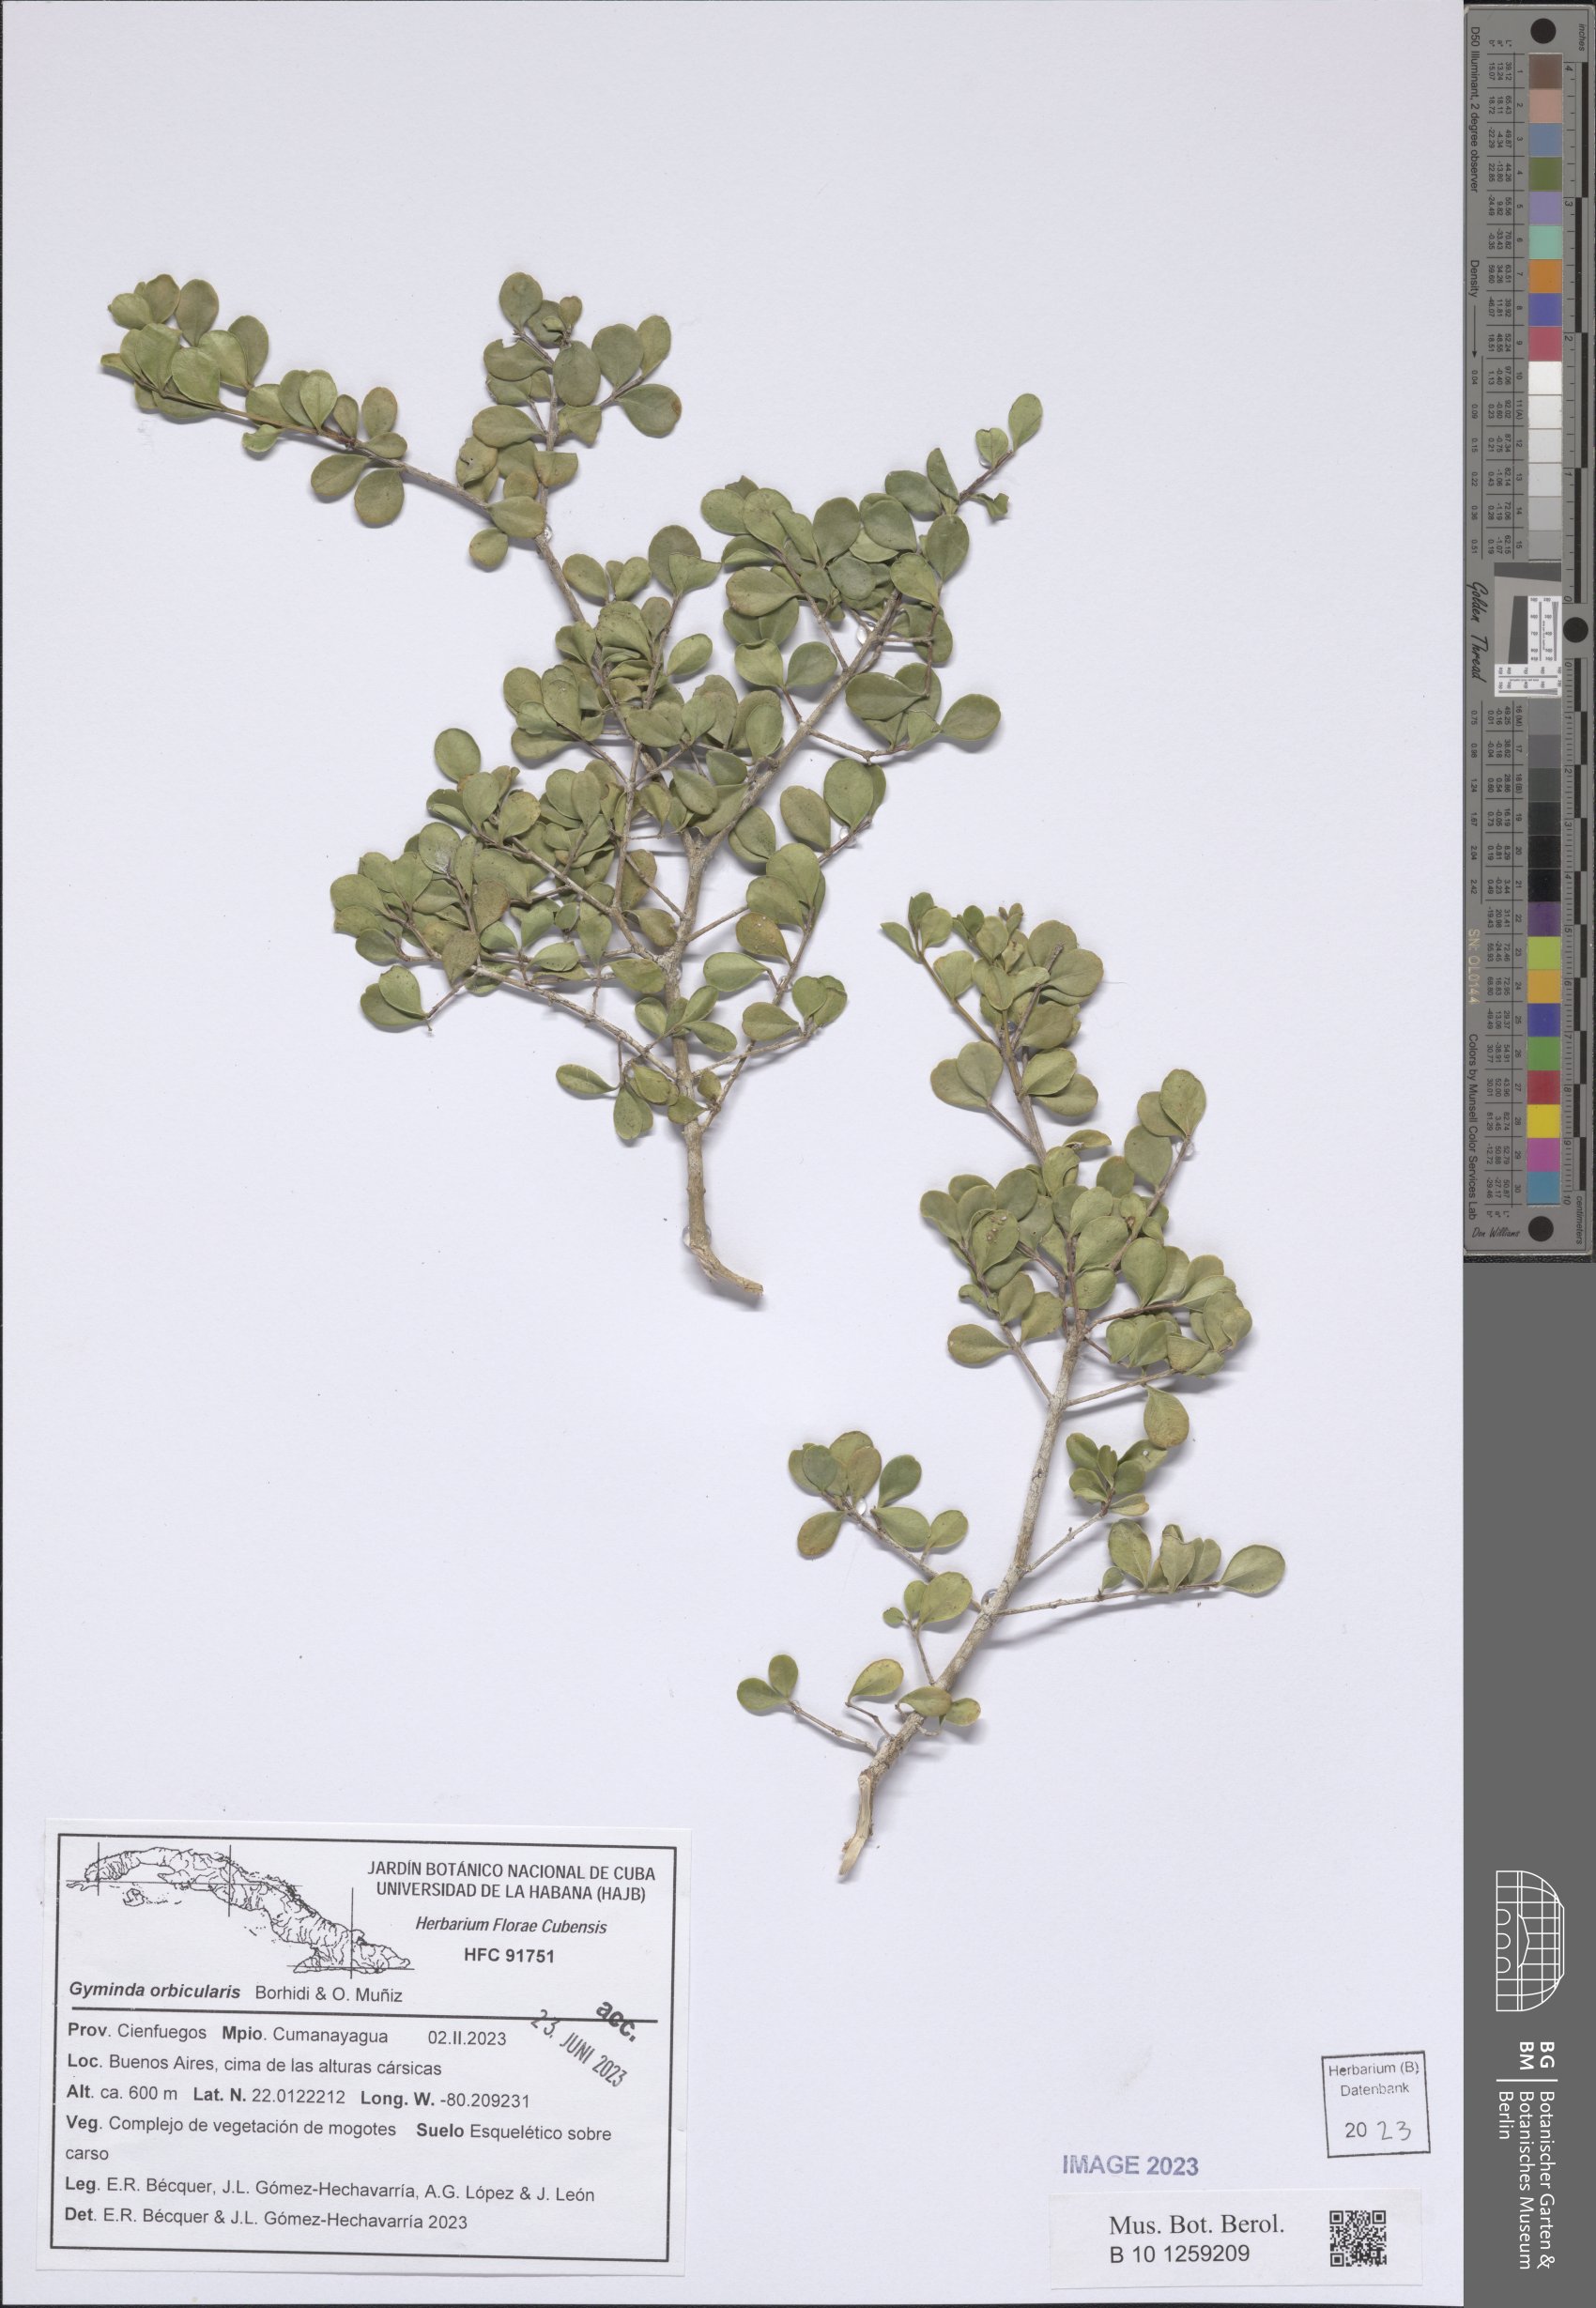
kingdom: Plantae
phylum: Tracheophyta
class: Magnoliopsida
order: Celastrales
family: Celastraceae
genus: Gyminda
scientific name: Gyminda orbicularis
